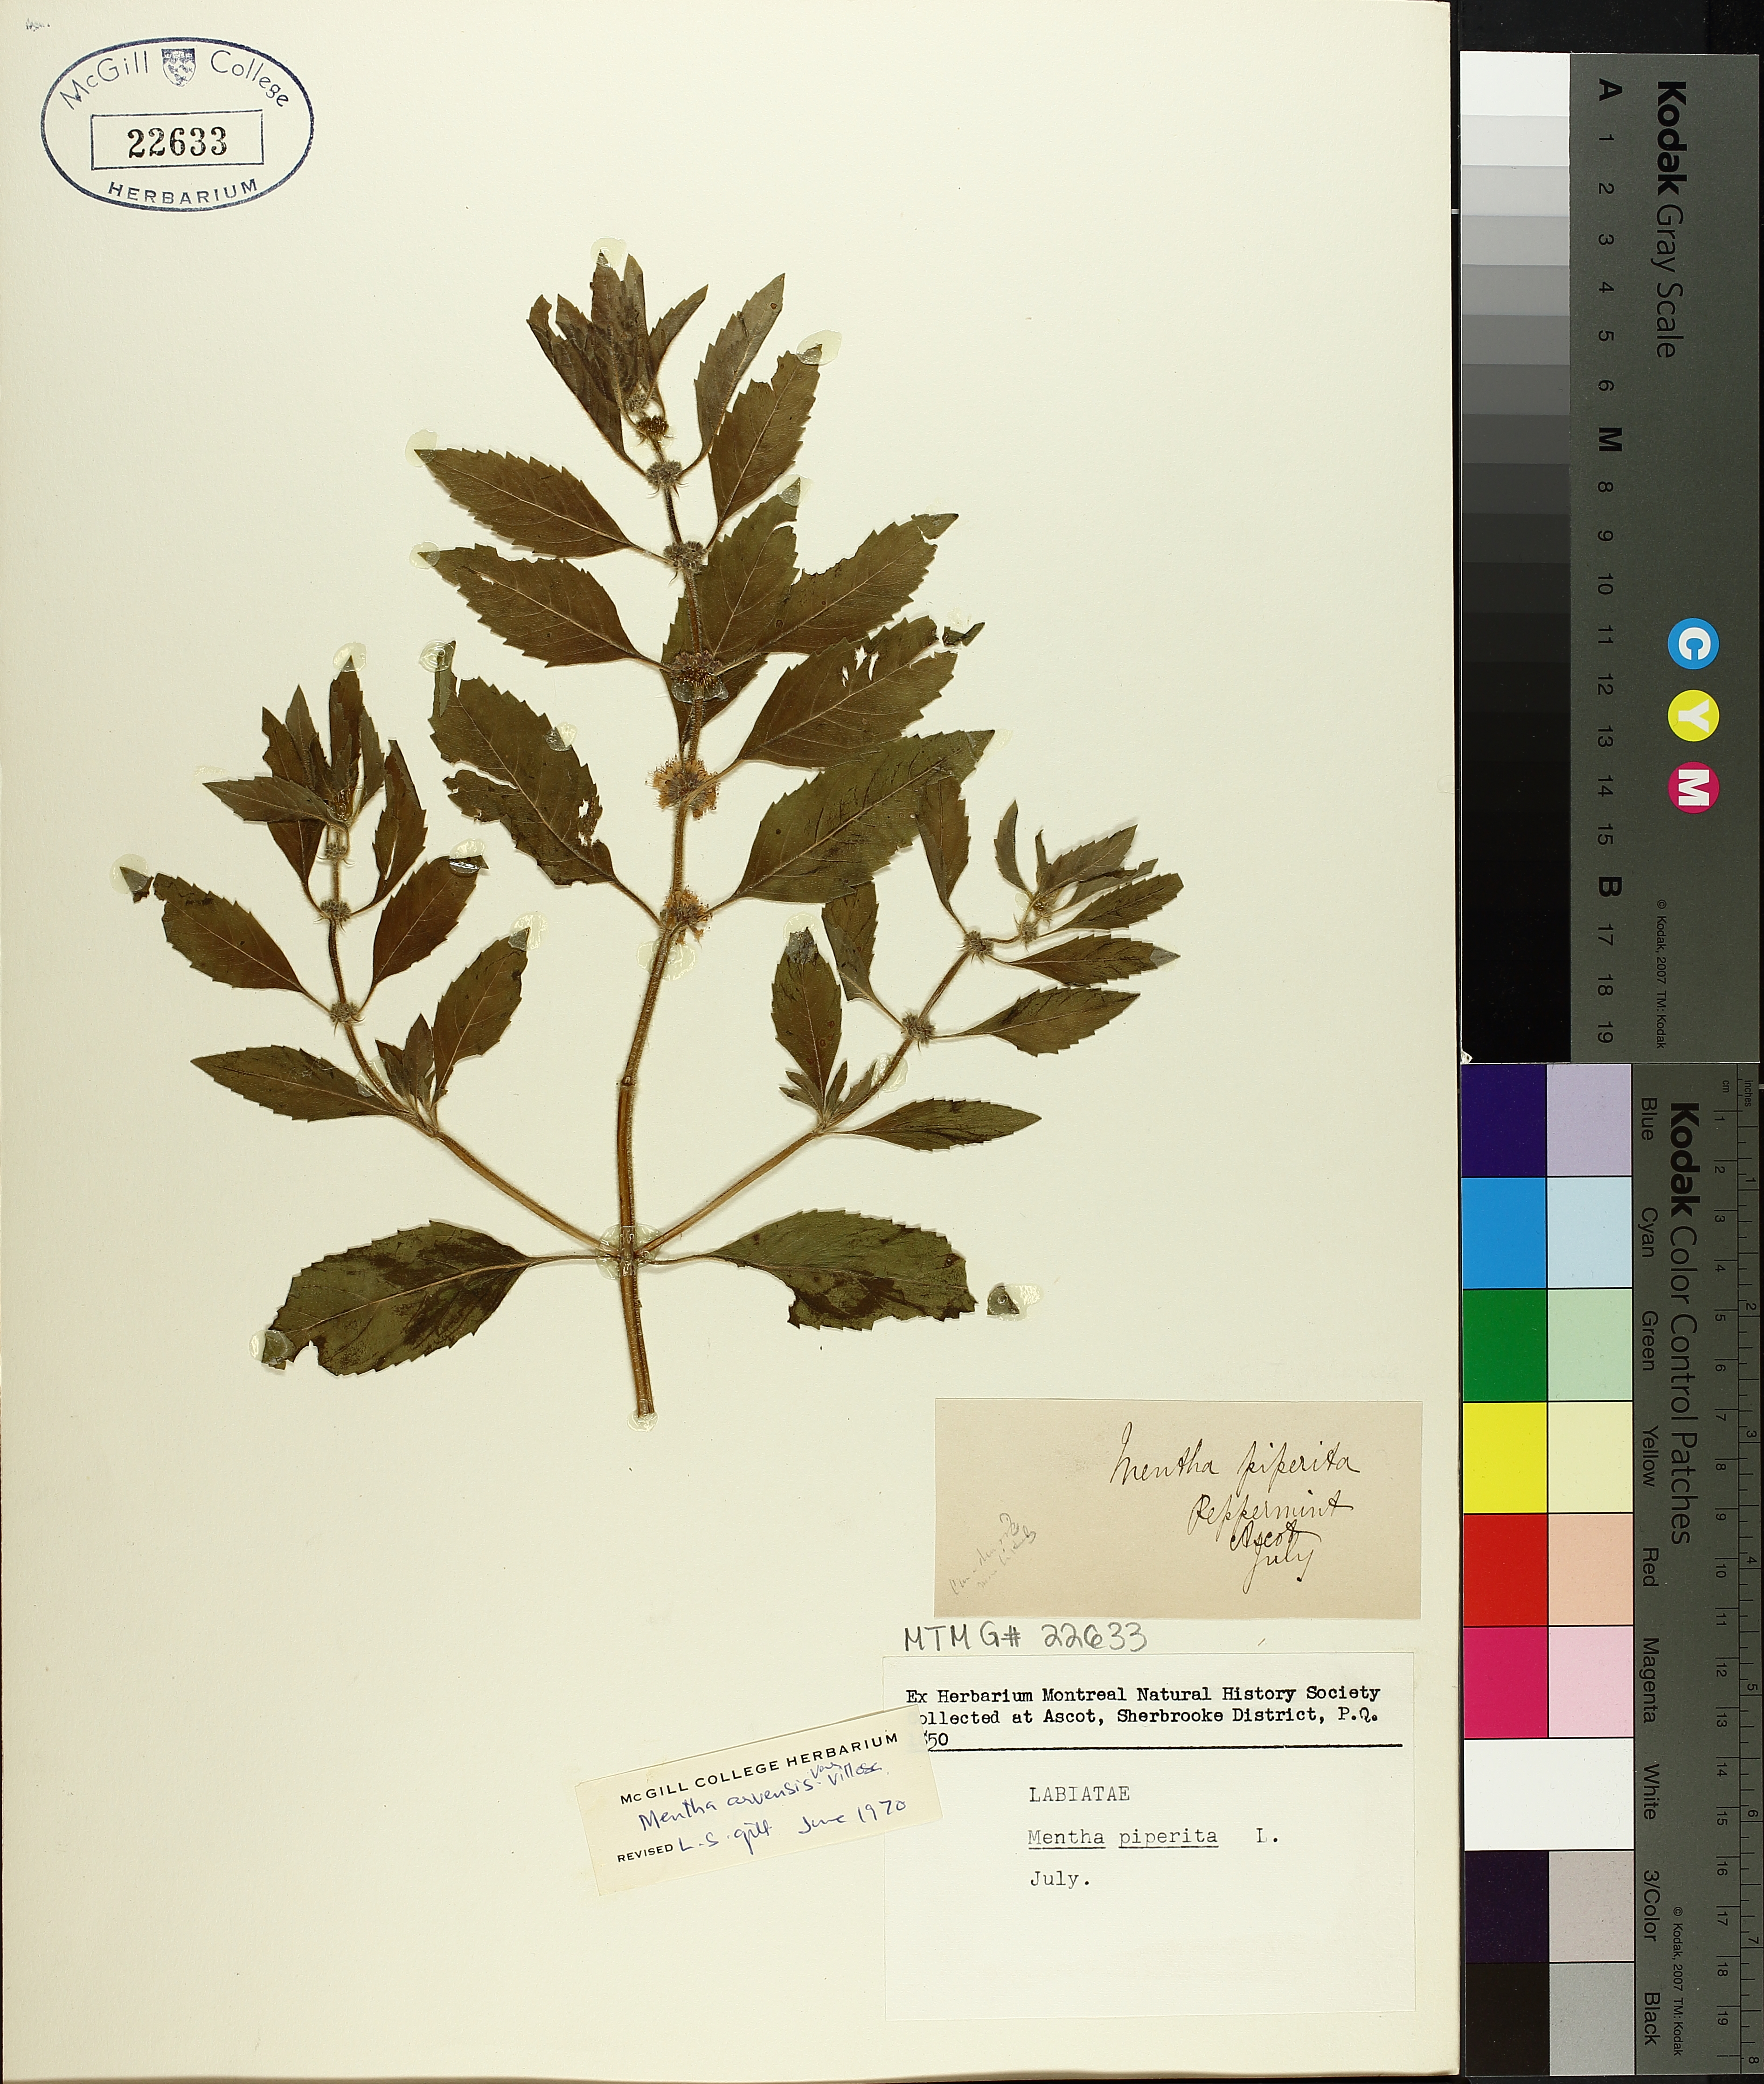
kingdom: Plantae
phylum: Tracheophyta
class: Magnoliopsida
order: Lamiales
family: Lamiaceae
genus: Mentha
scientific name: Mentha arvensis
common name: Corn mint
